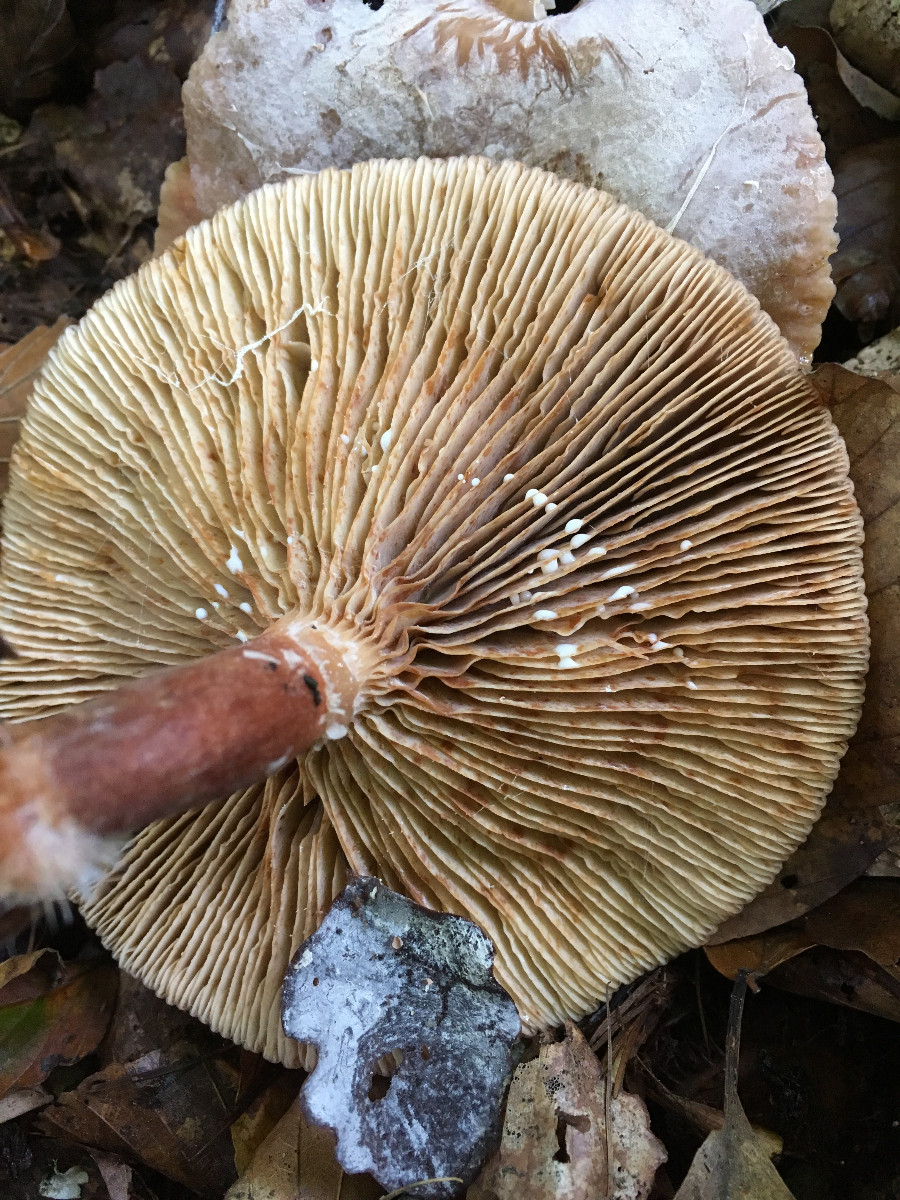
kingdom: Fungi
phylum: Basidiomycota
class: Agaricomycetes
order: Russulales
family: Russulaceae
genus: Lactarius
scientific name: Lactarius subdulcis
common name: sødlig mælkehat
